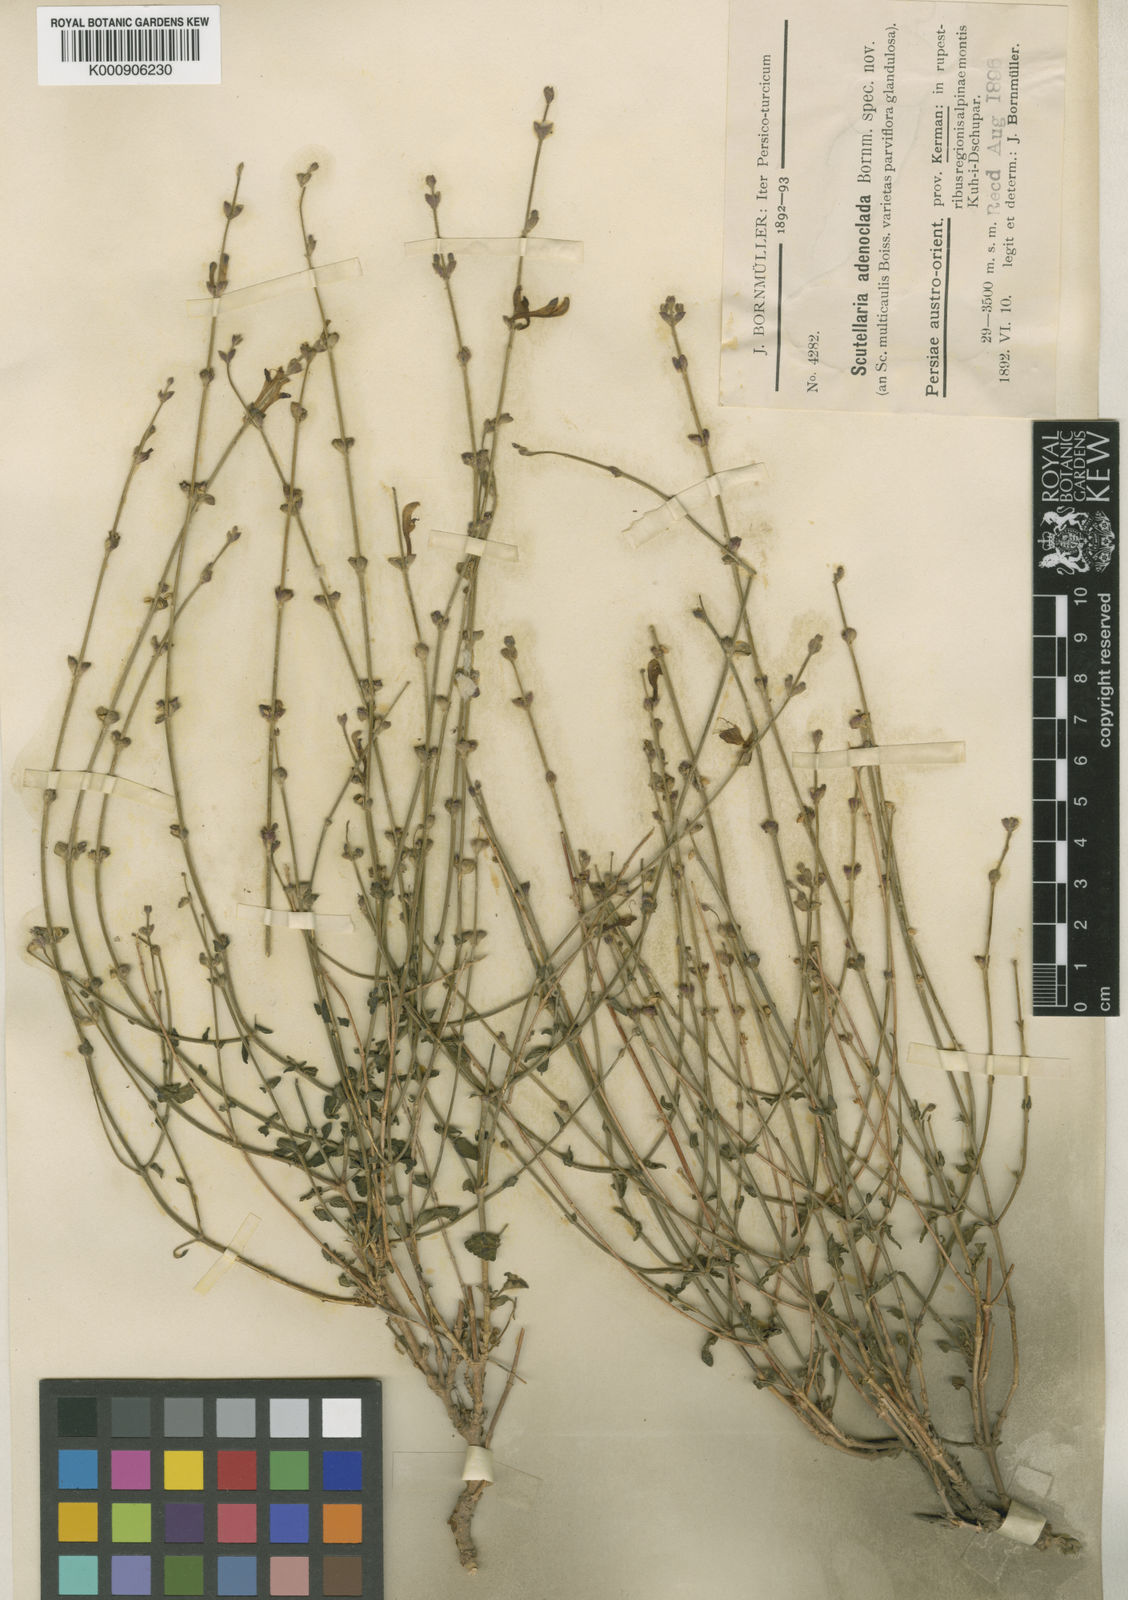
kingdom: Plantae
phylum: Tracheophyta
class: Magnoliopsida
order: Lamiales
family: Lamiaceae
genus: Scutellaria
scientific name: Scutellaria multicaulis
